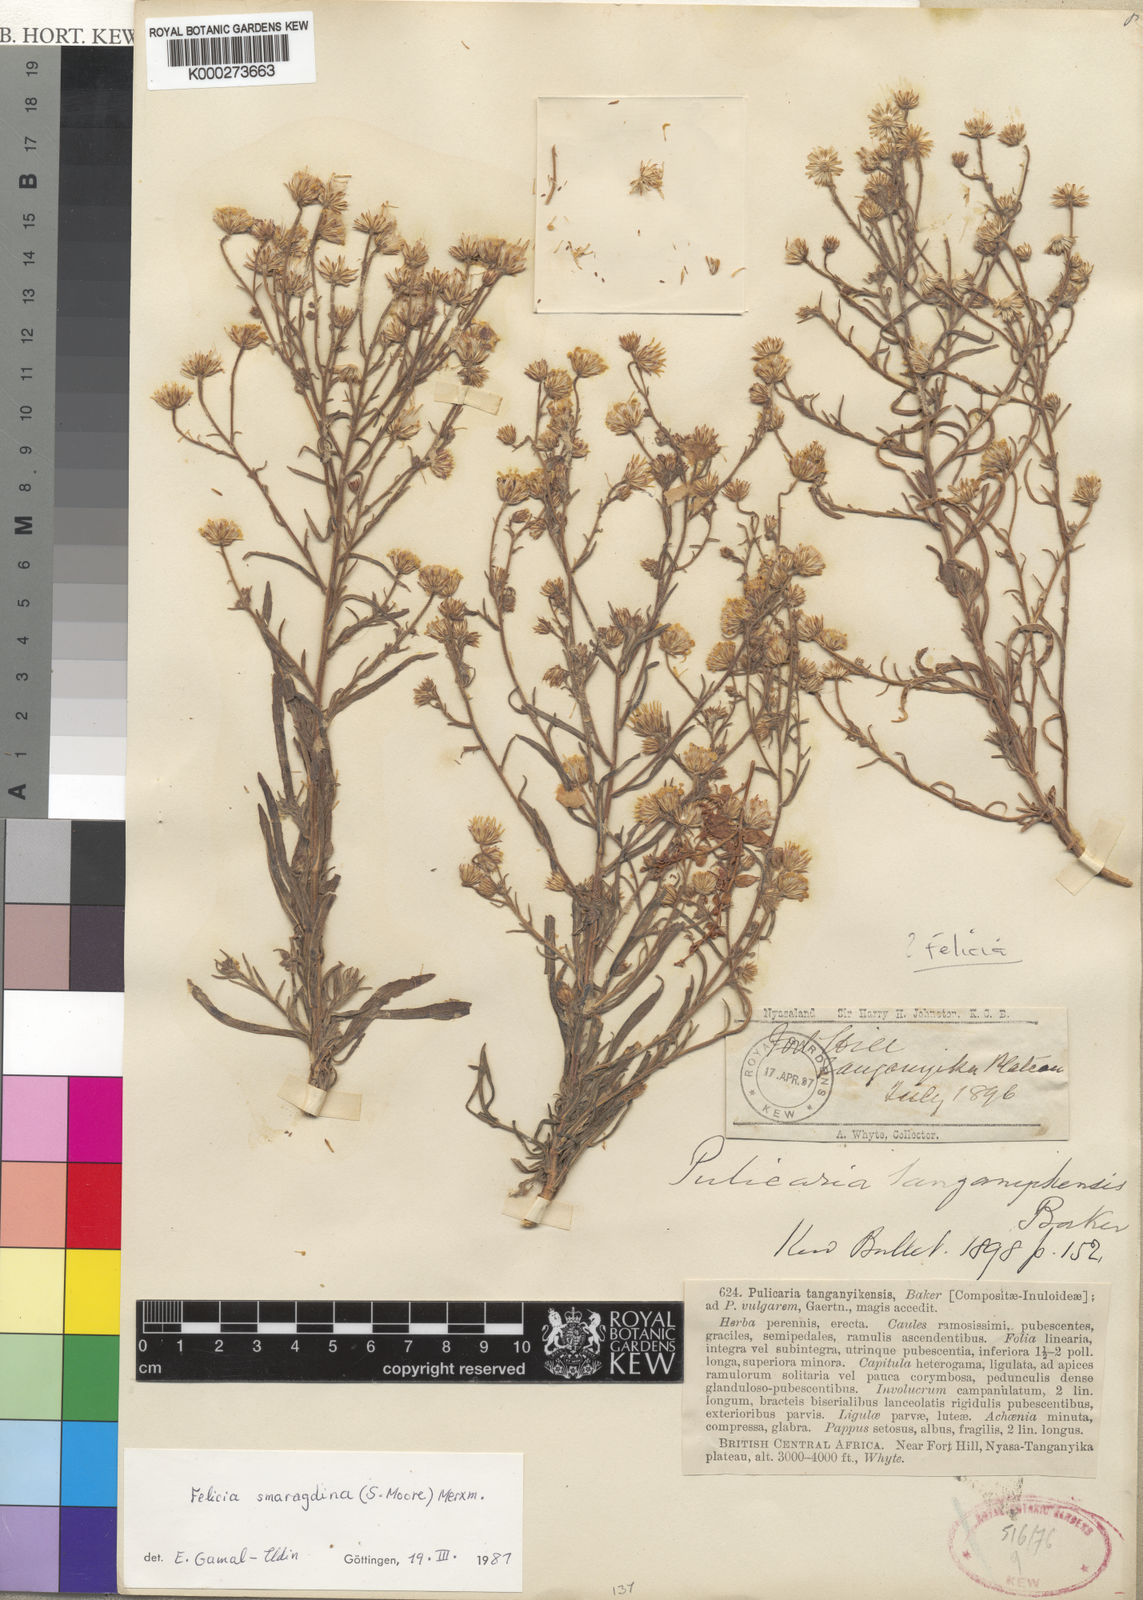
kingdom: Plantae
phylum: Tracheophyta
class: Magnoliopsida
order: Asterales
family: Asteraceae
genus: Felicia
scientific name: Felicia smaragdina
